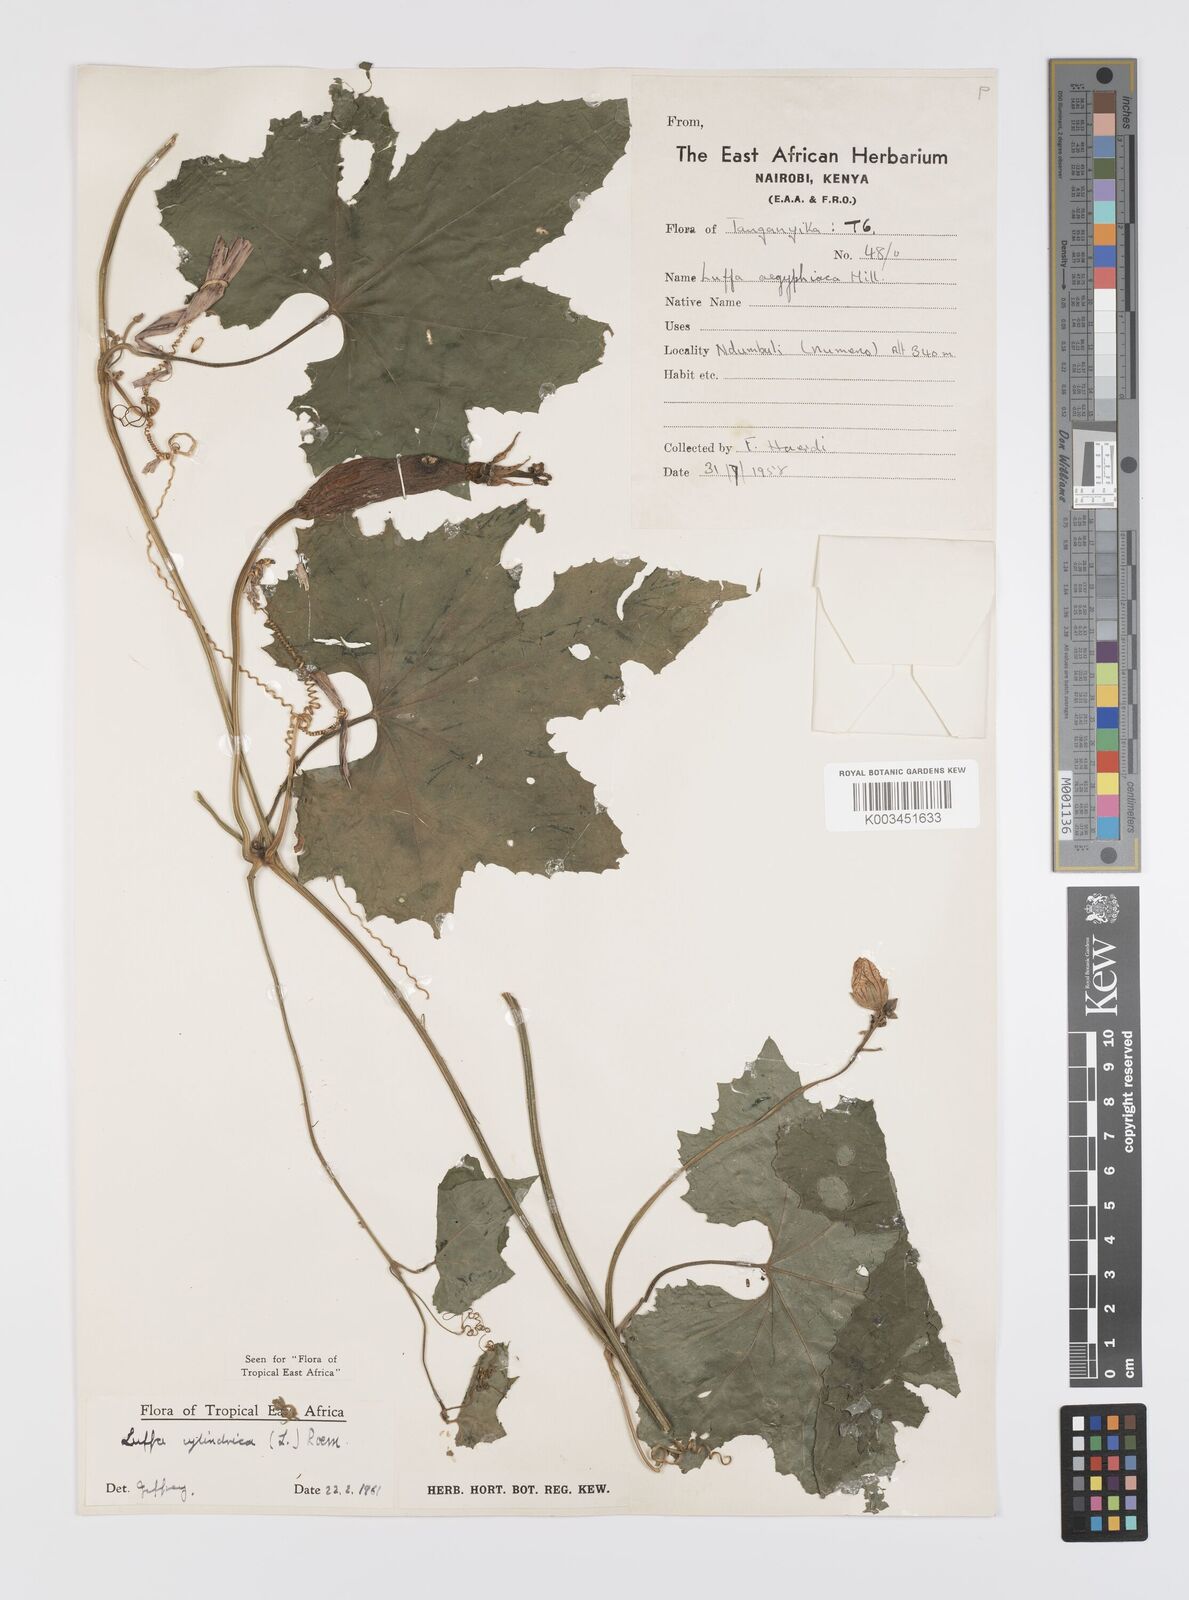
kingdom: Plantae
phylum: Tracheophyta
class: Magnoliopsida
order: Cucurbitales
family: Cucurbitaceae
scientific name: Cucurbitaceae
